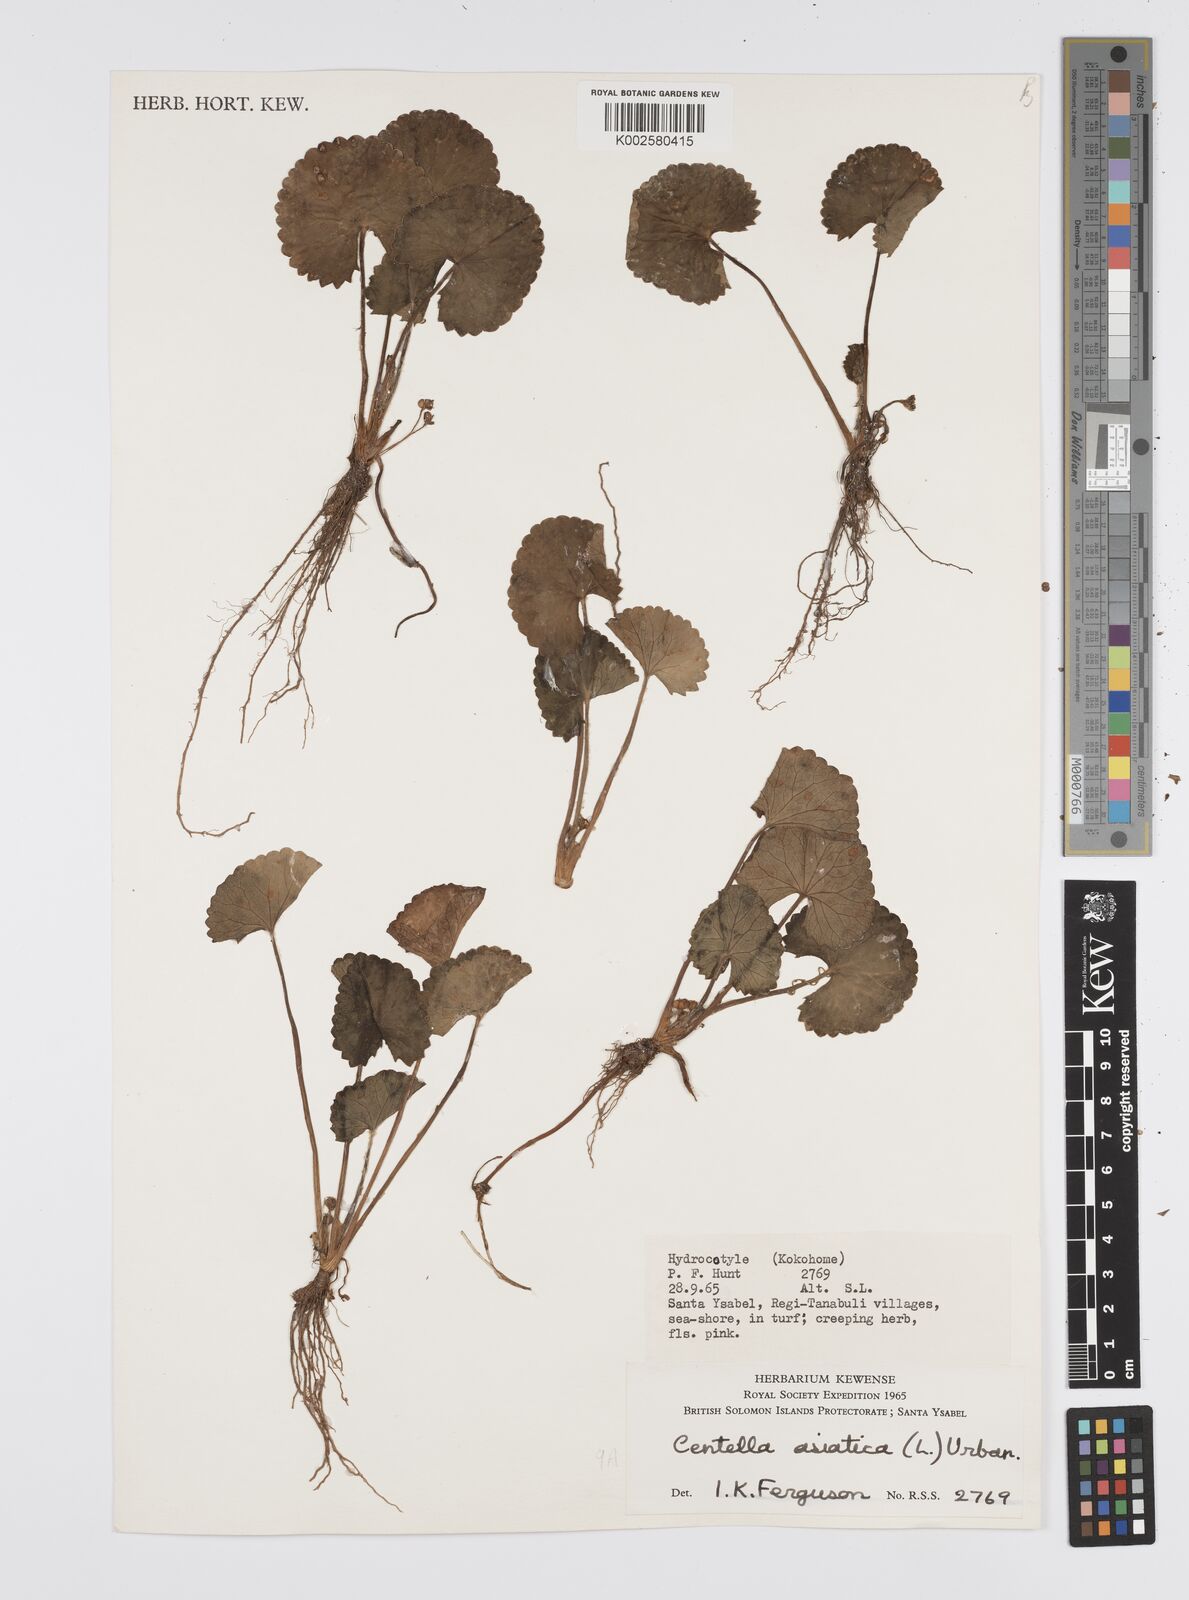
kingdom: Plantae
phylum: Tracheophyta
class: Magnoliopsida
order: Apiales
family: Apiaceae
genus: Centella
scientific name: Centella asiatica
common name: Spadeleaf
